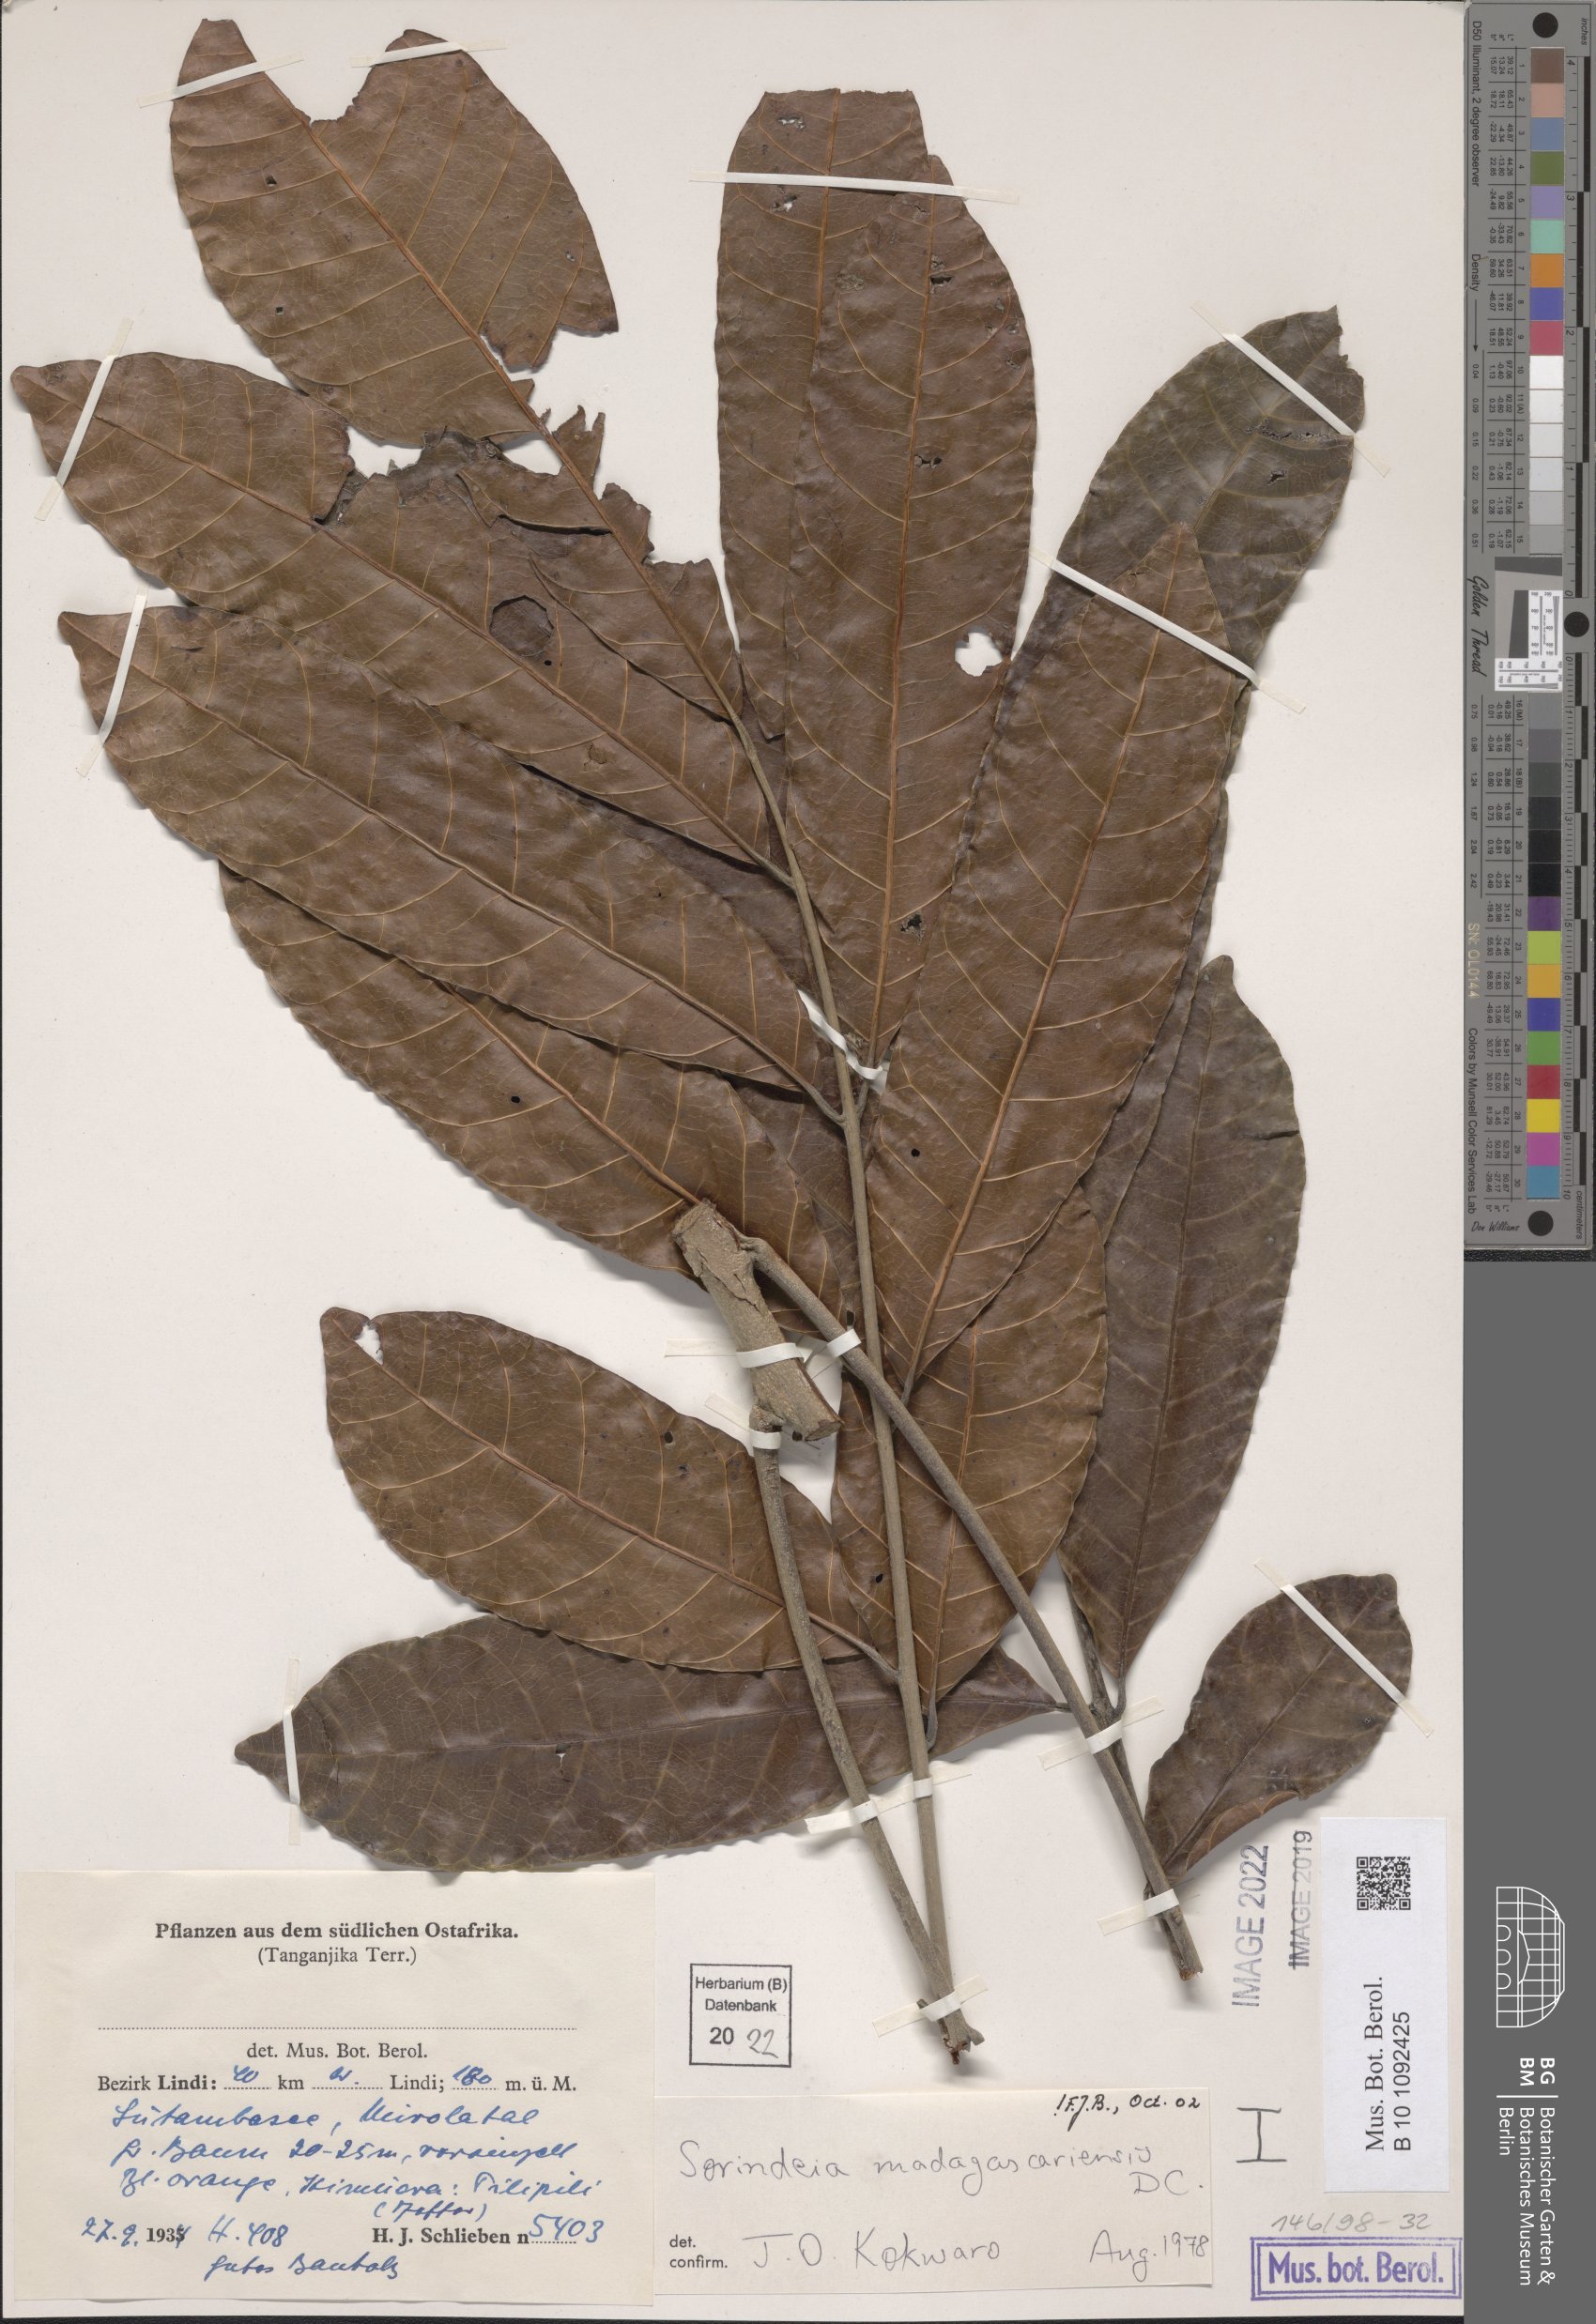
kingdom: Plantae
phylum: Tracheophyta
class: Magnoliopsida
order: Sapindales
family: Anacardiaceae
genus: Sorindeia
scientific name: Sorindeia madagascariensis
